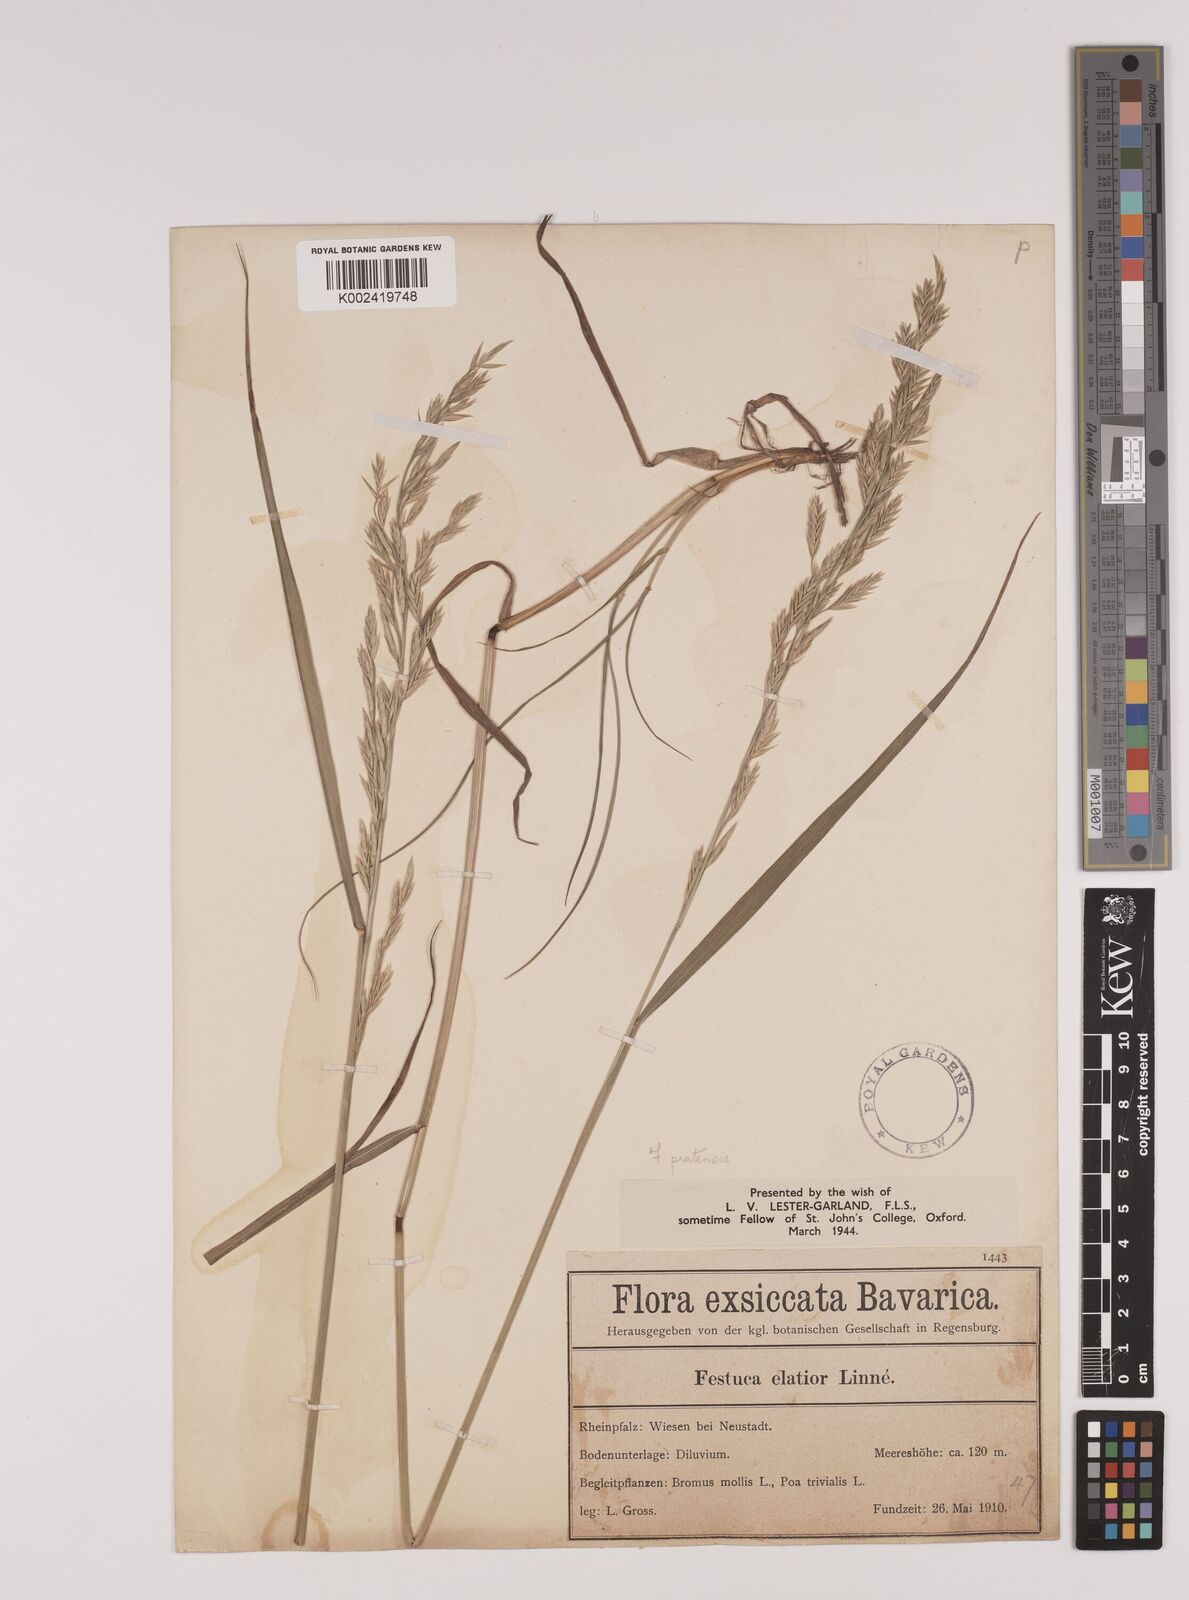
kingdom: Plantae
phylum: Tracheophyta
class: Liliopsida
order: Poales
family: Poaceae
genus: Lolium
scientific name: Lolium pratense
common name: Dover grass
